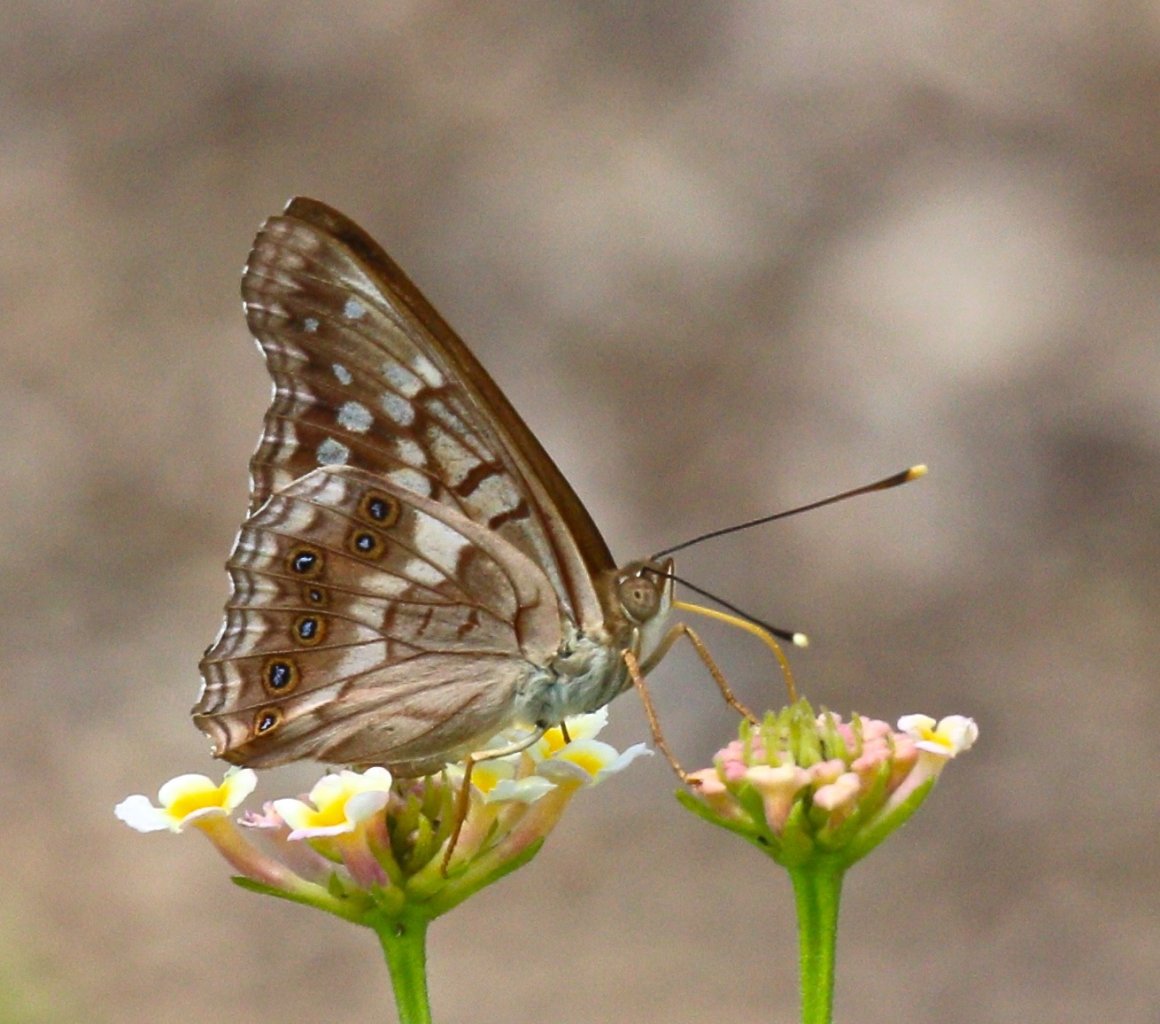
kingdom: Animalia
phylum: Arthropoda
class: Insecta
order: Lepidoptera
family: Nymphalidae
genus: Asterocampa
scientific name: Asterocampa clyton
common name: Tawny Emperor
